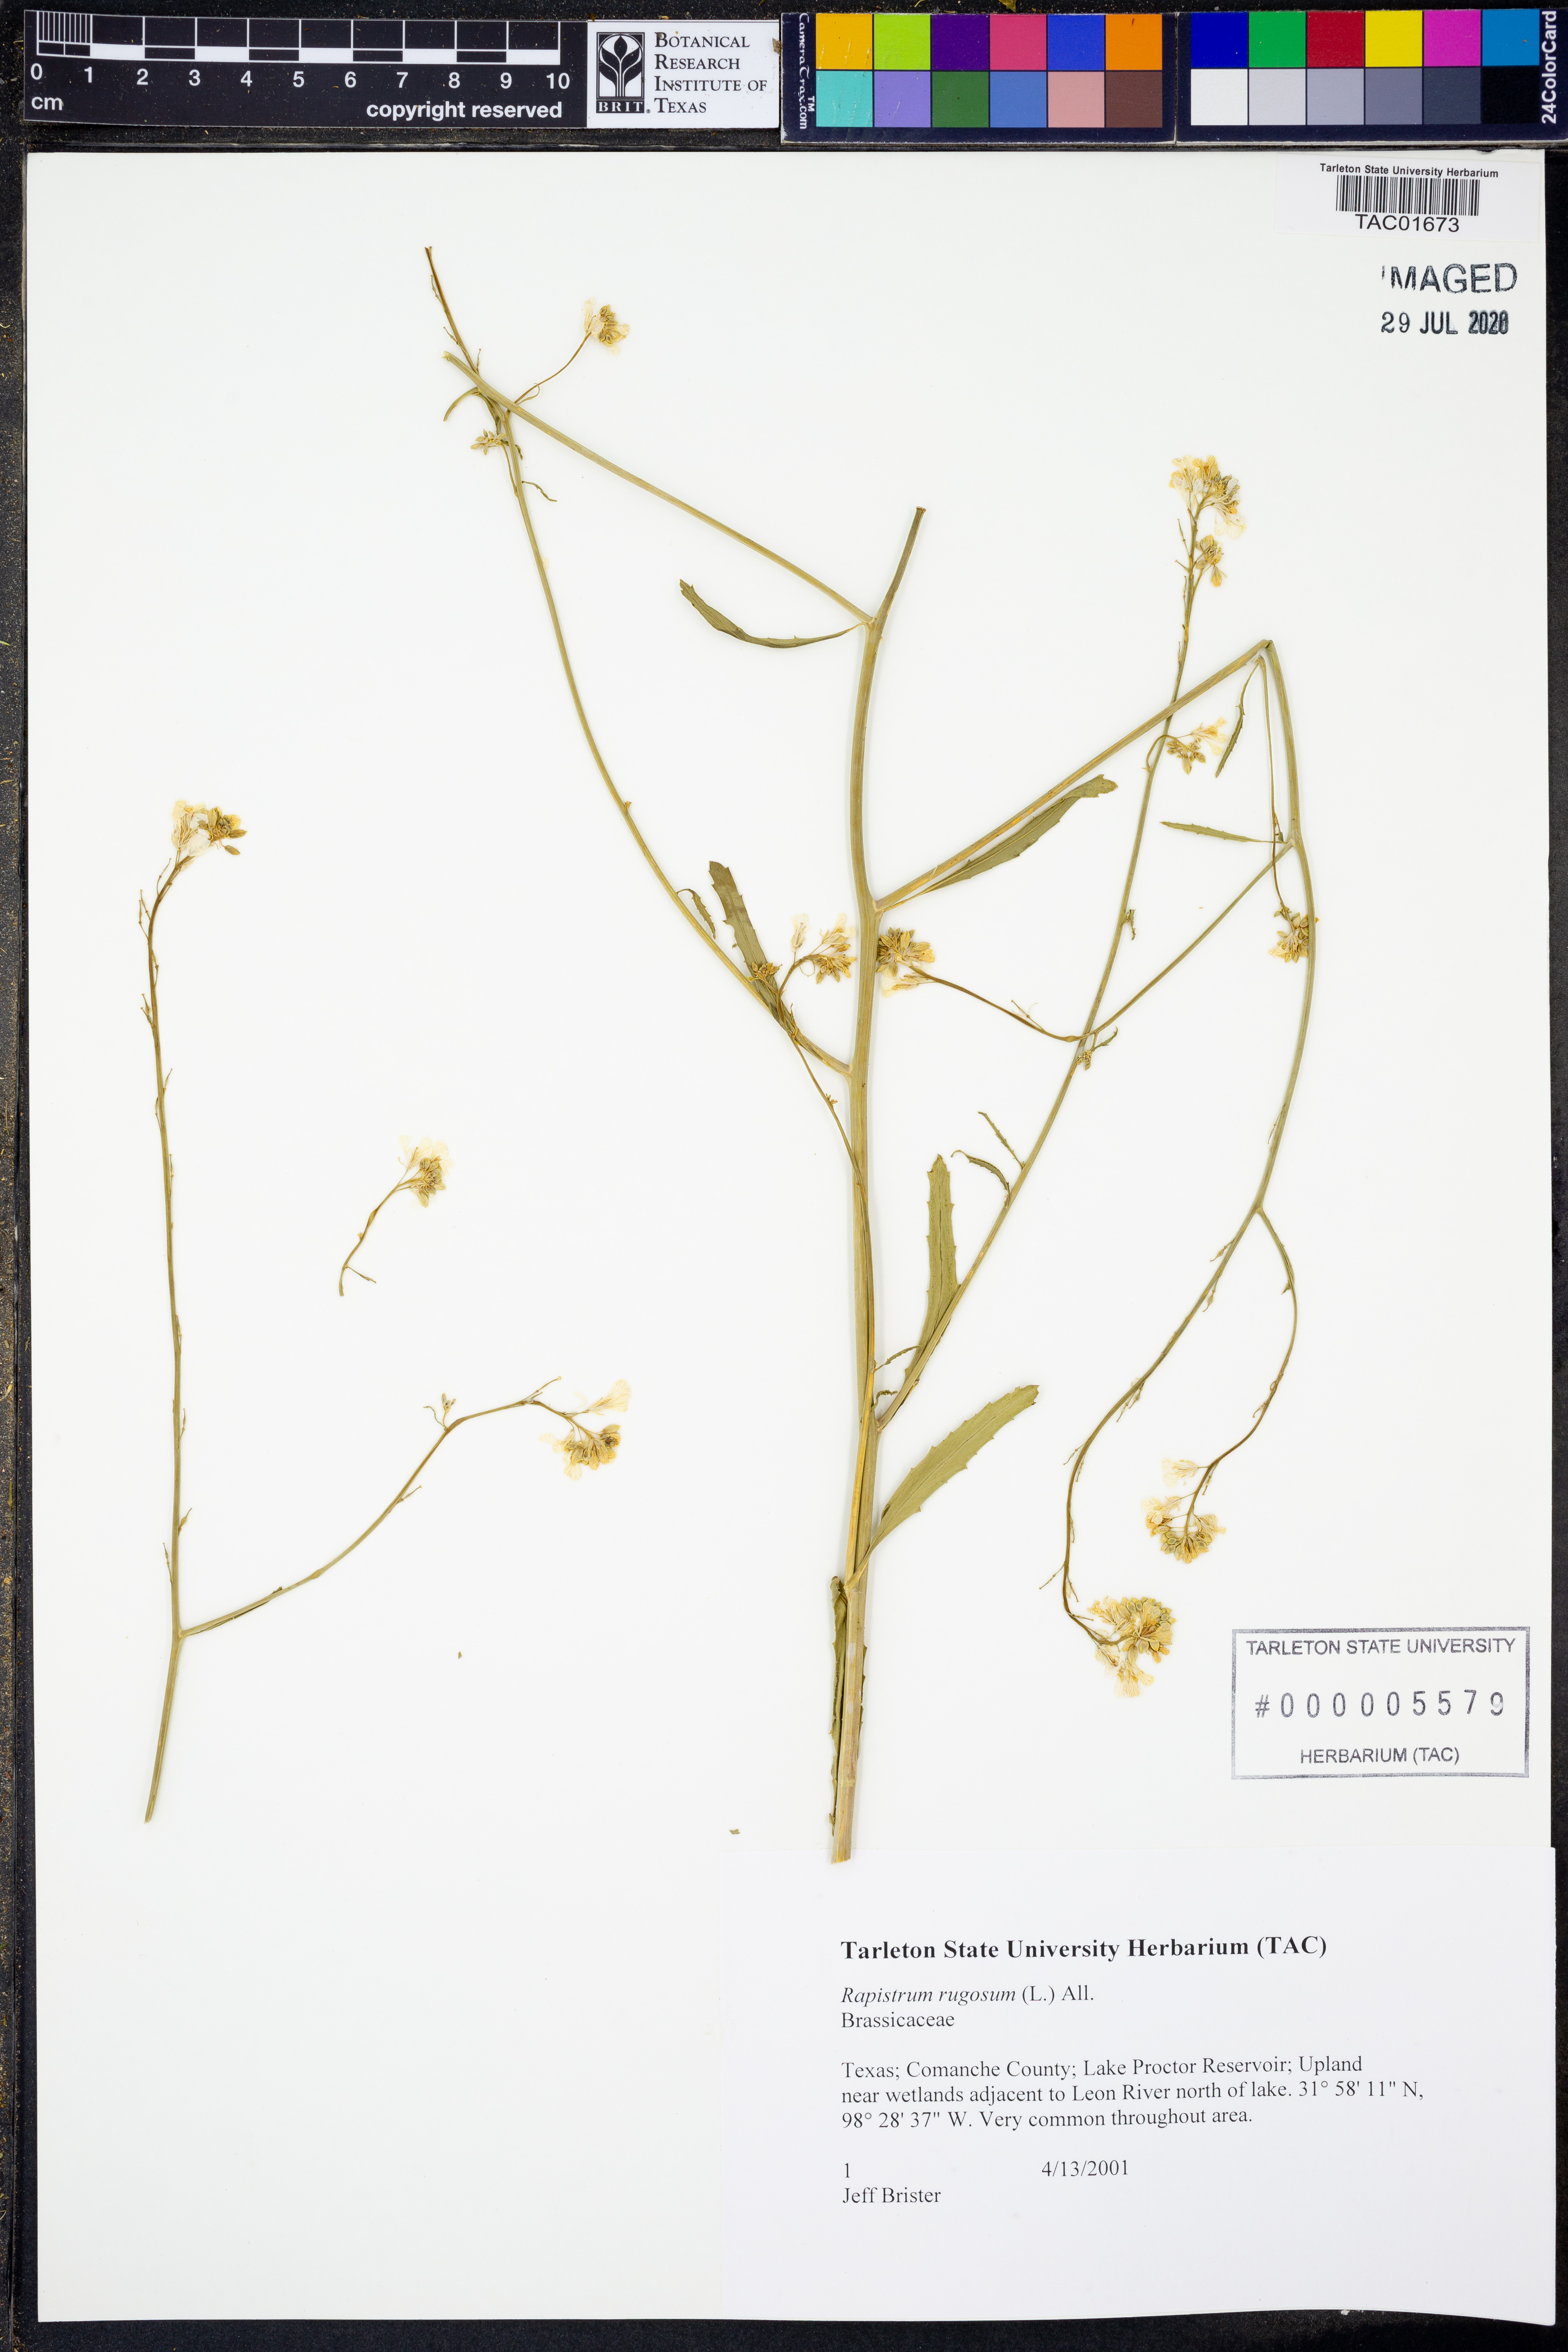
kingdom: Plantae
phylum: Tracheophyta
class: Magnoliopsida
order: Brassicales
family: Brassicaceae
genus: Rapistrum
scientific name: Rapistrum rugosum
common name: Annual bastardcabbage
